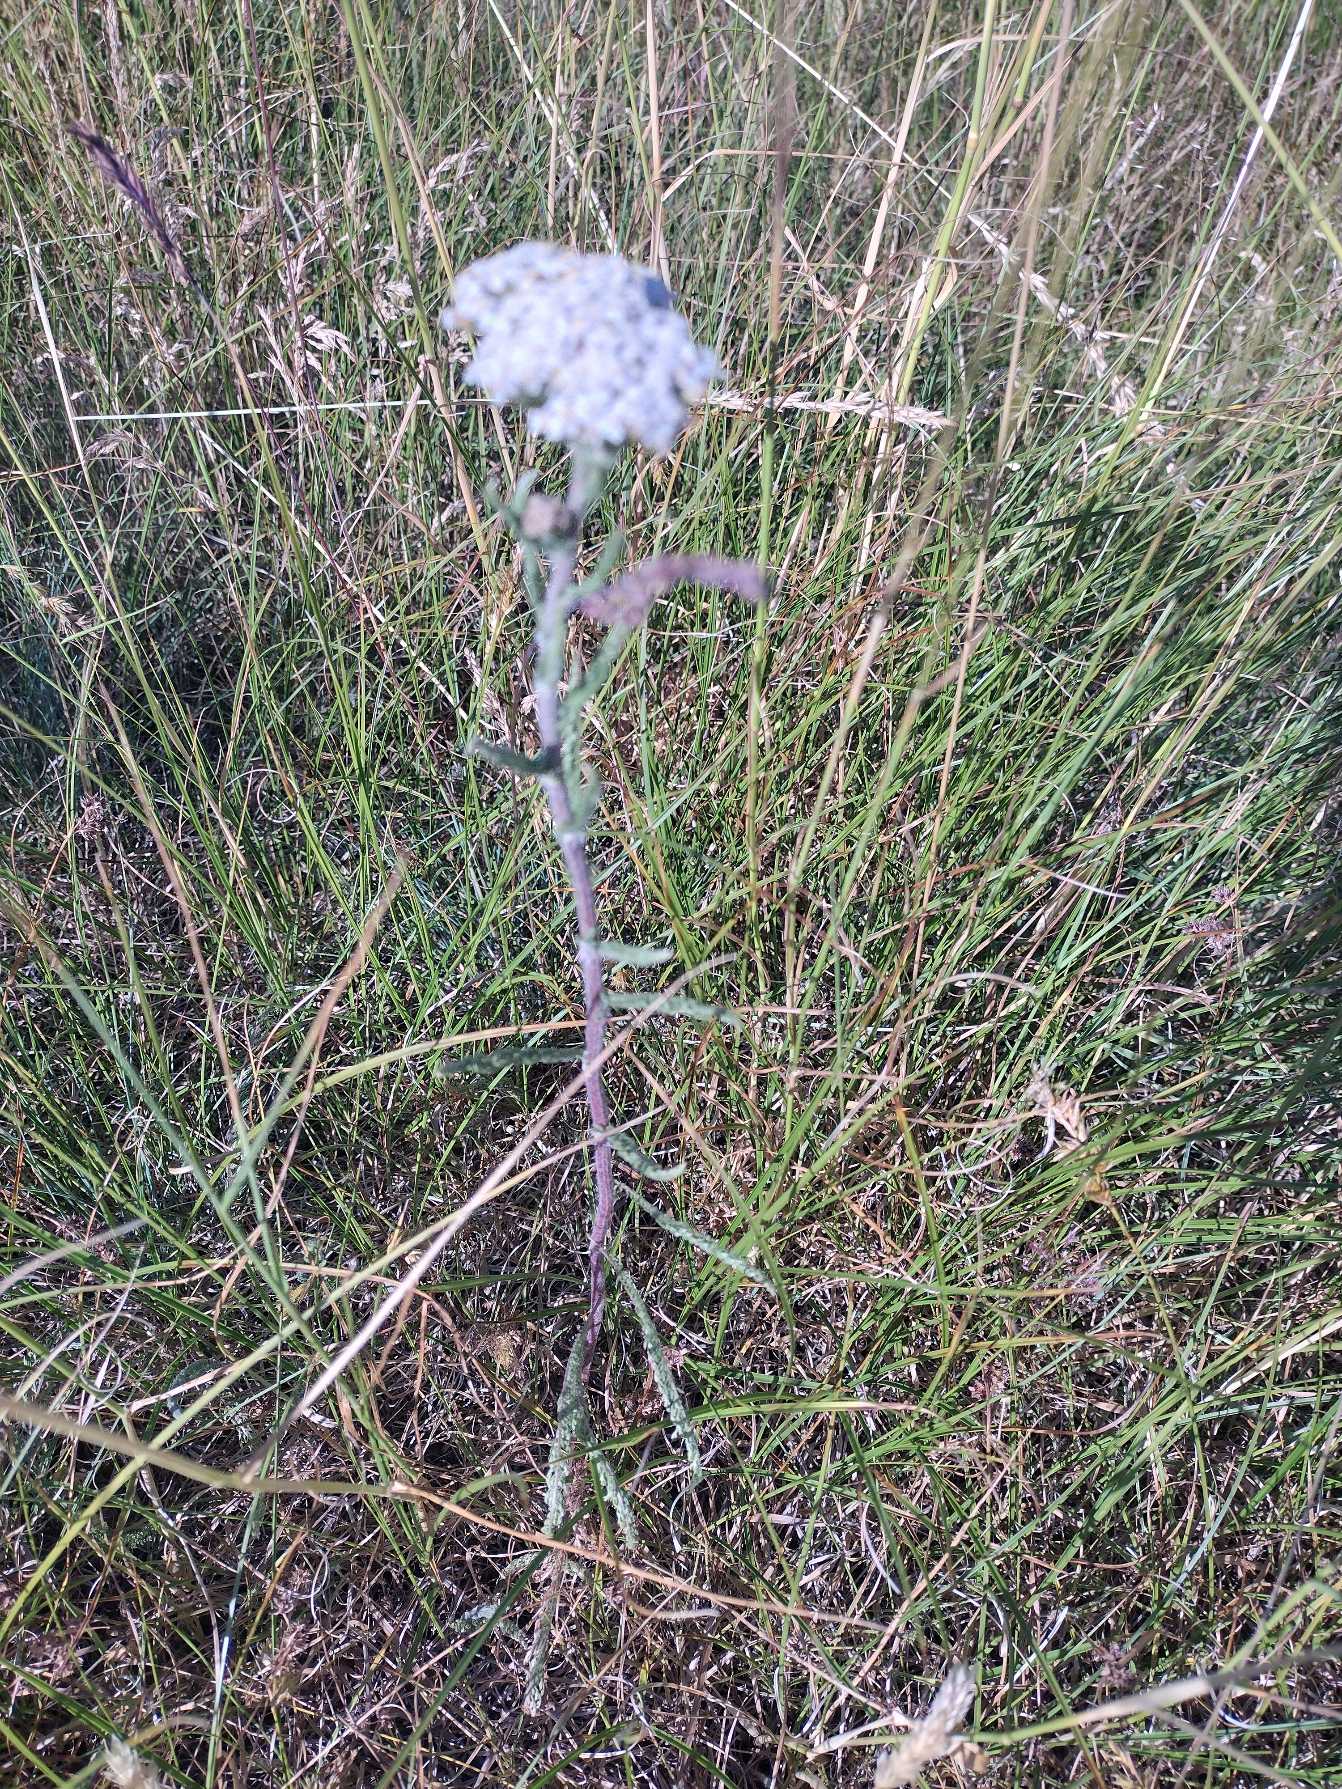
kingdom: Plantae
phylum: Tracheophyta
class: Magnoliopsida
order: Asterales
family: Asteraceae
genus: Achillea
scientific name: Achillea millefolium
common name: Almindelig røllike
